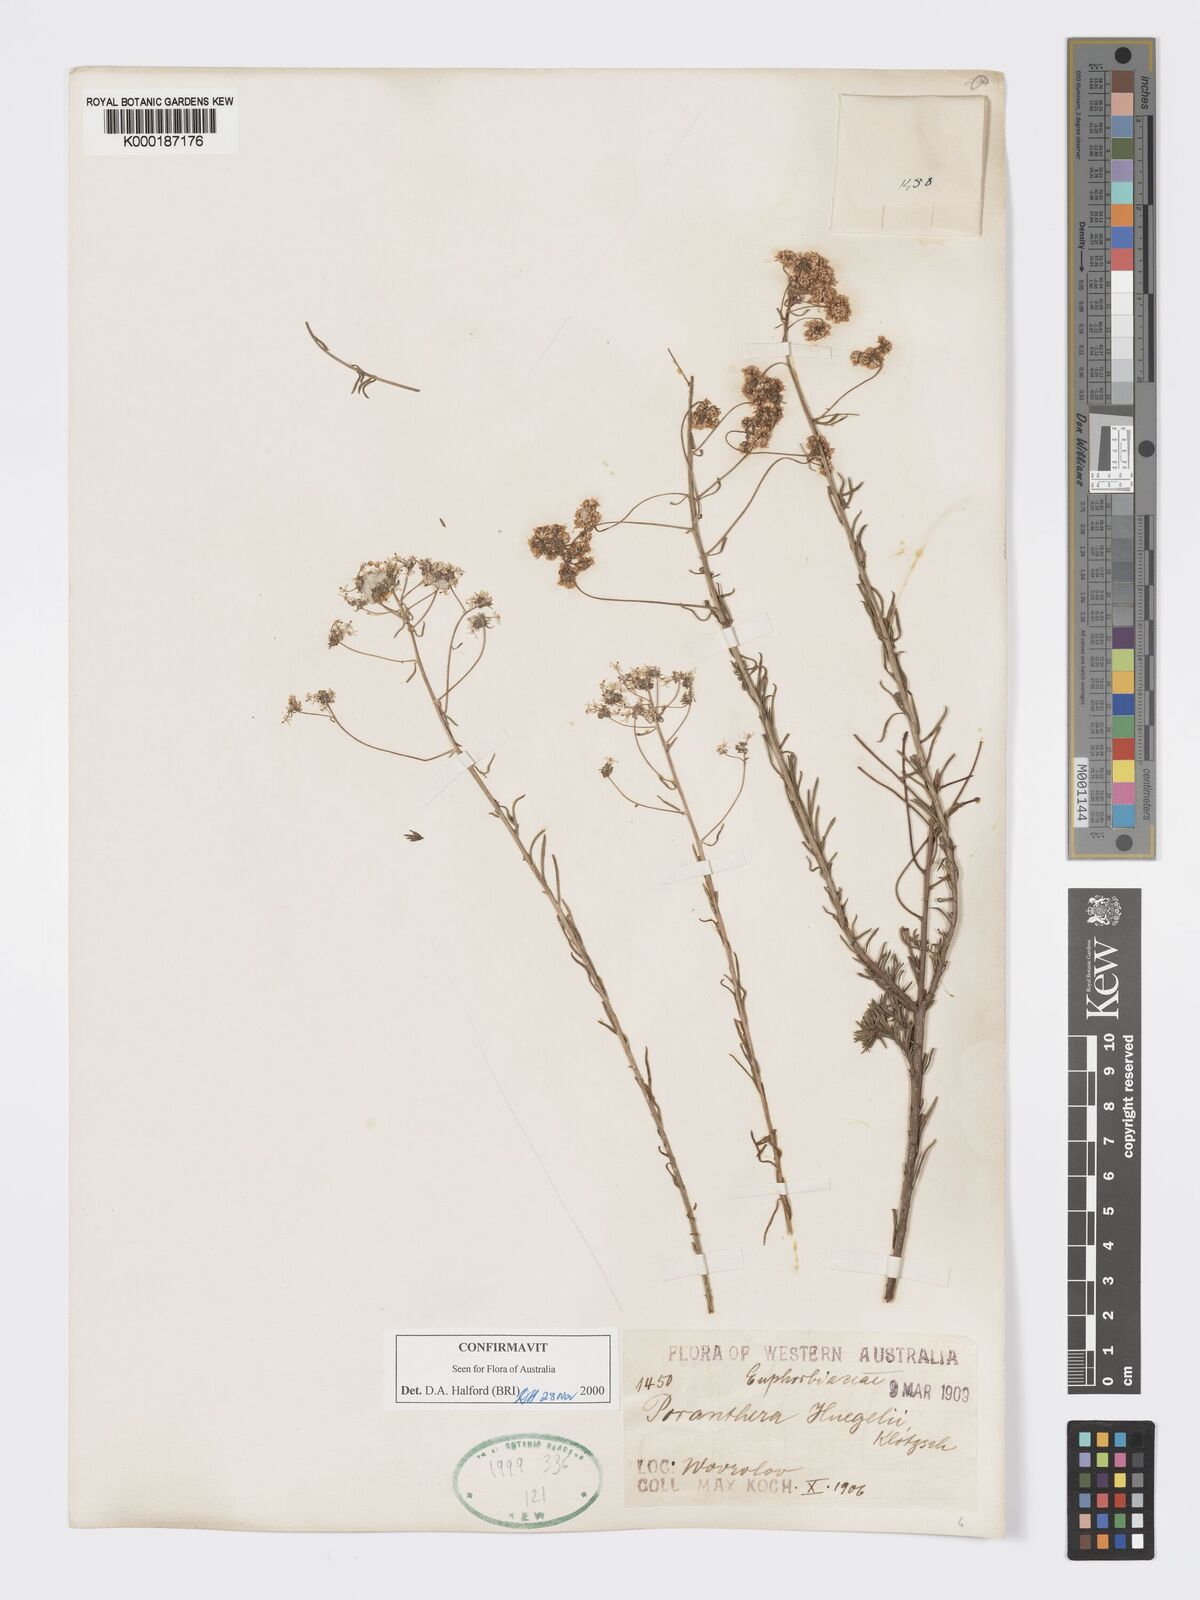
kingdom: Plantae
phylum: Tracheophyta
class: Magnoliopsida
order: Malpighiales
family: Phyllanthaceae
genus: Poranthera
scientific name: Poranthera huegelii
